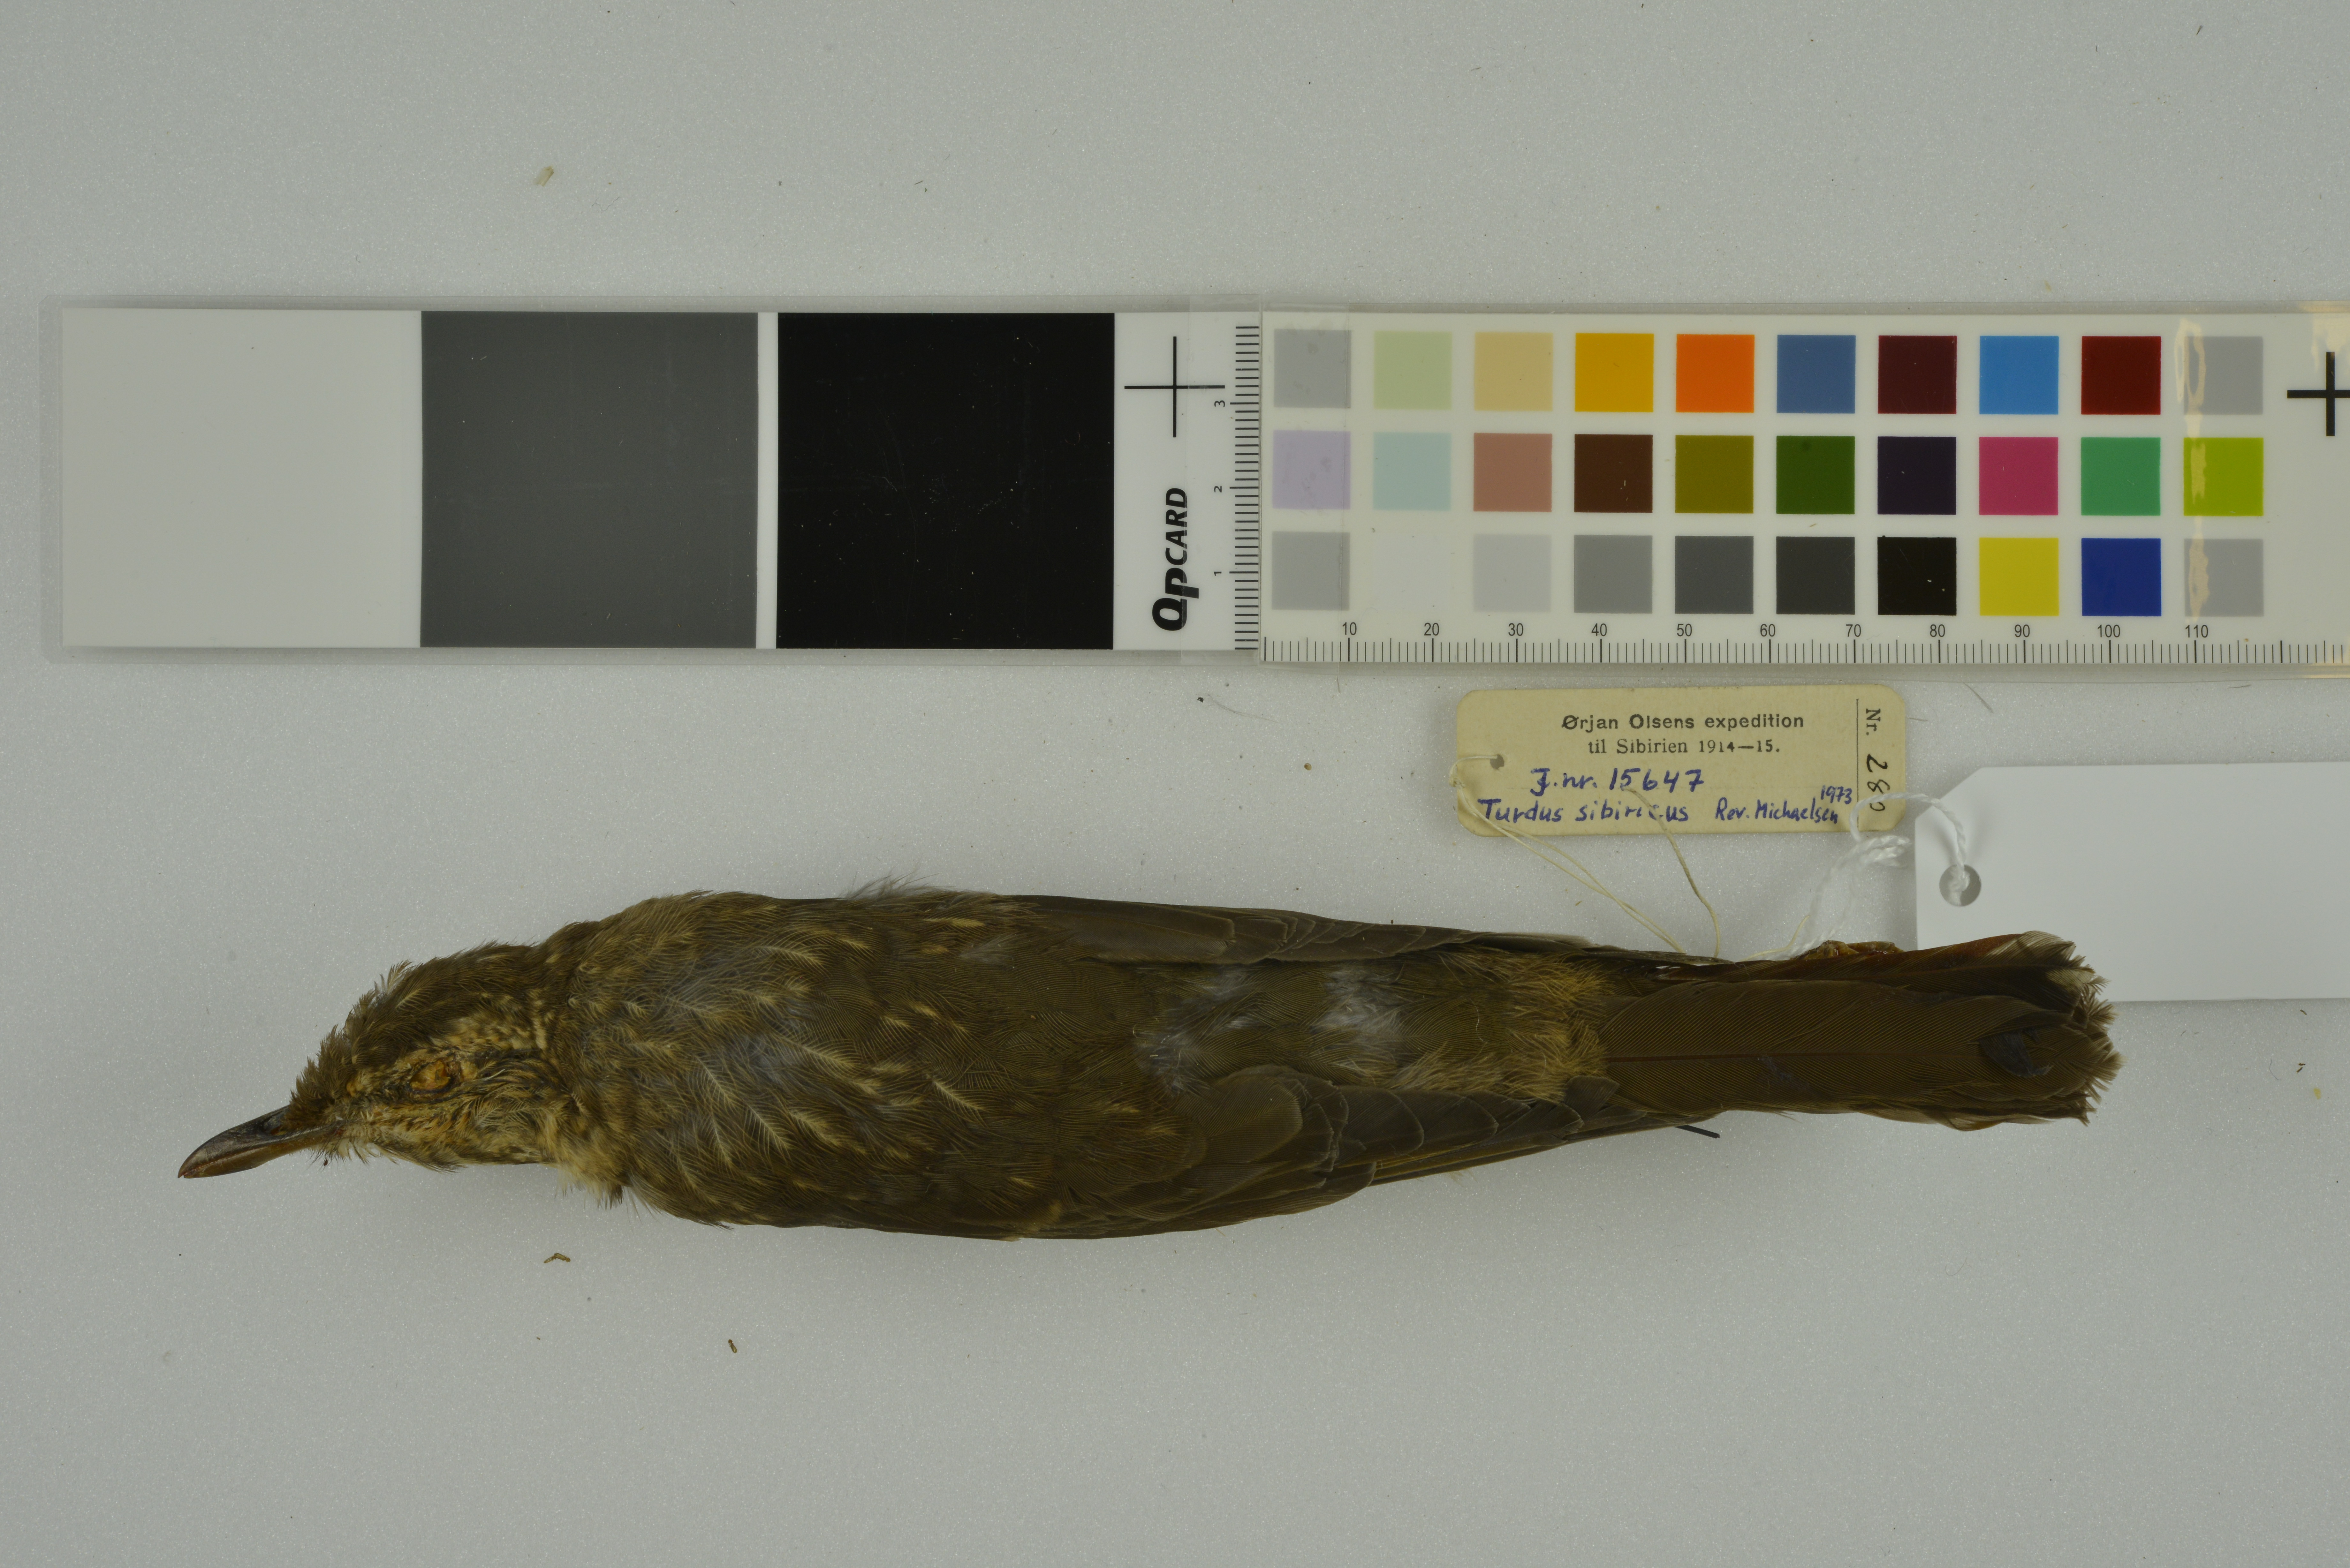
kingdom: Animalia
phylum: Chordata
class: Aves
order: Passeriformes
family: Turdidae
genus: Geokichla
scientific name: Geokichla sibirica
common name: Siberian thrush
